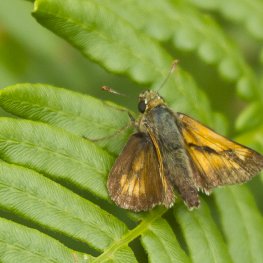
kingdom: Animalia
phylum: Arthropoda
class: Insecta
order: Lepidoptera
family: Hesperiidae
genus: Polites
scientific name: Polites
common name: Long Dash Skipper
